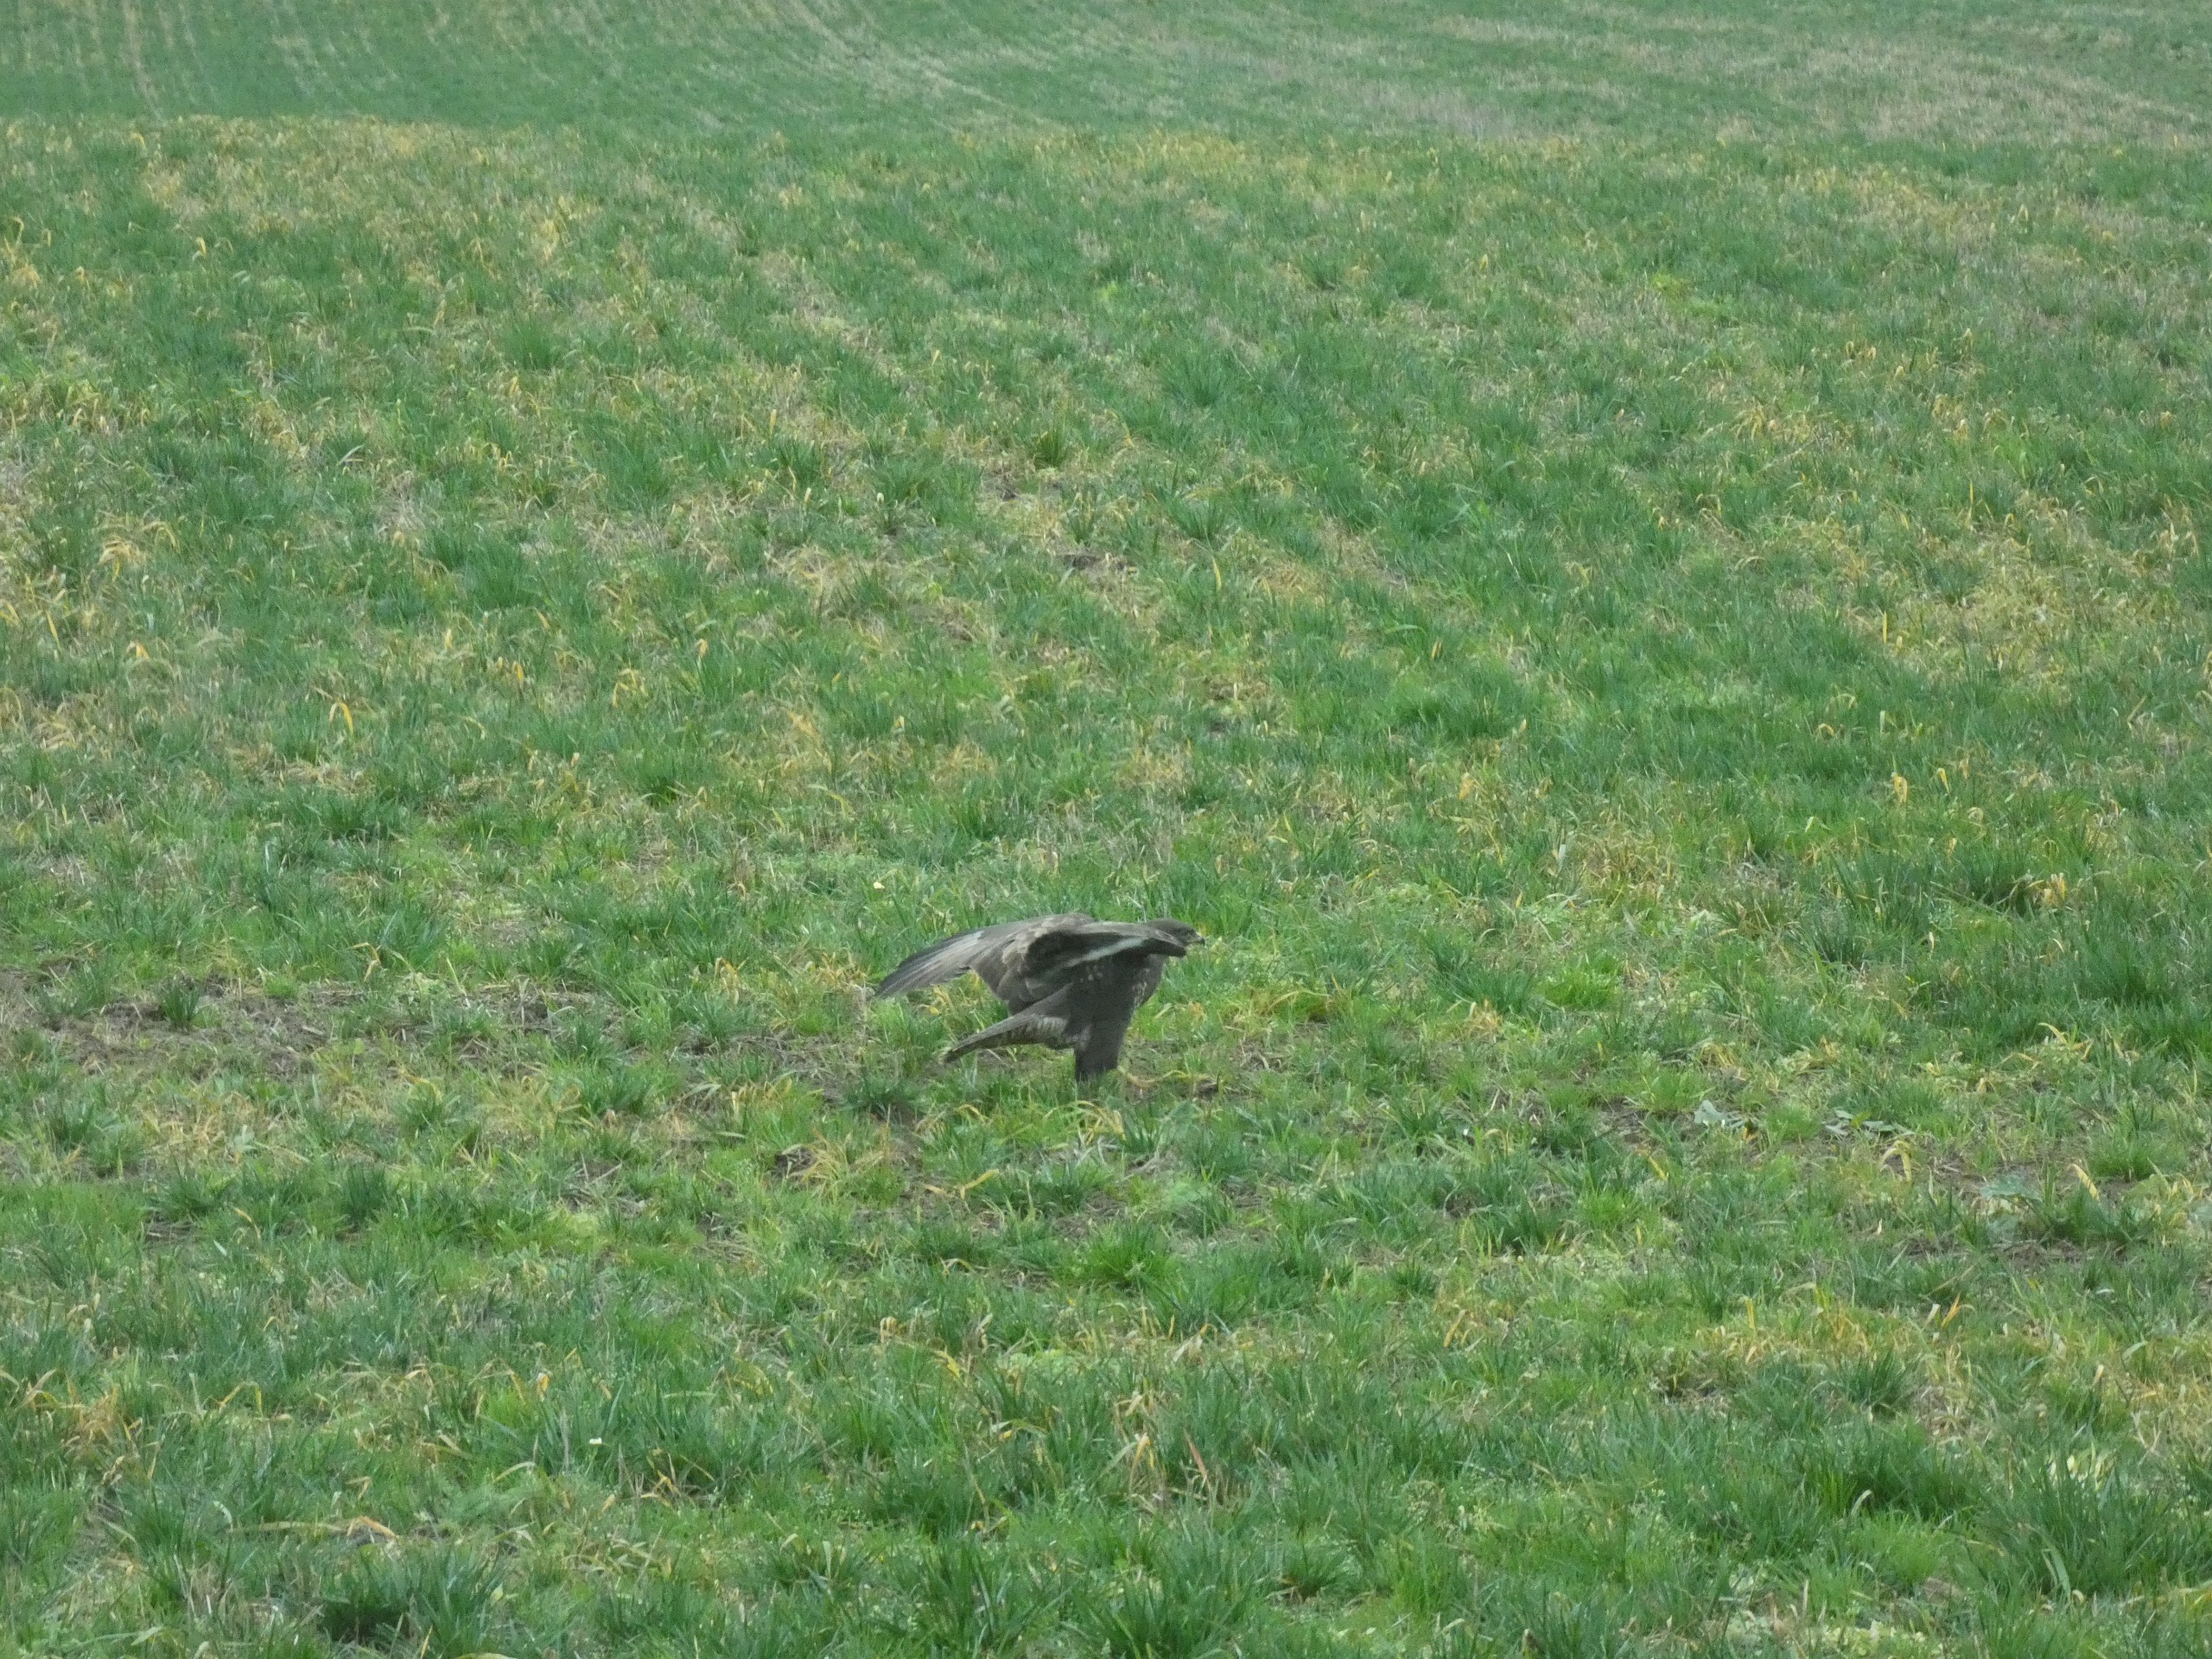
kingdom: Animalia
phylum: Chordata
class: Aves
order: Accipitriformes
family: Accipitridae
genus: Buteo
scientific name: Buteo buteo
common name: Musvåge
